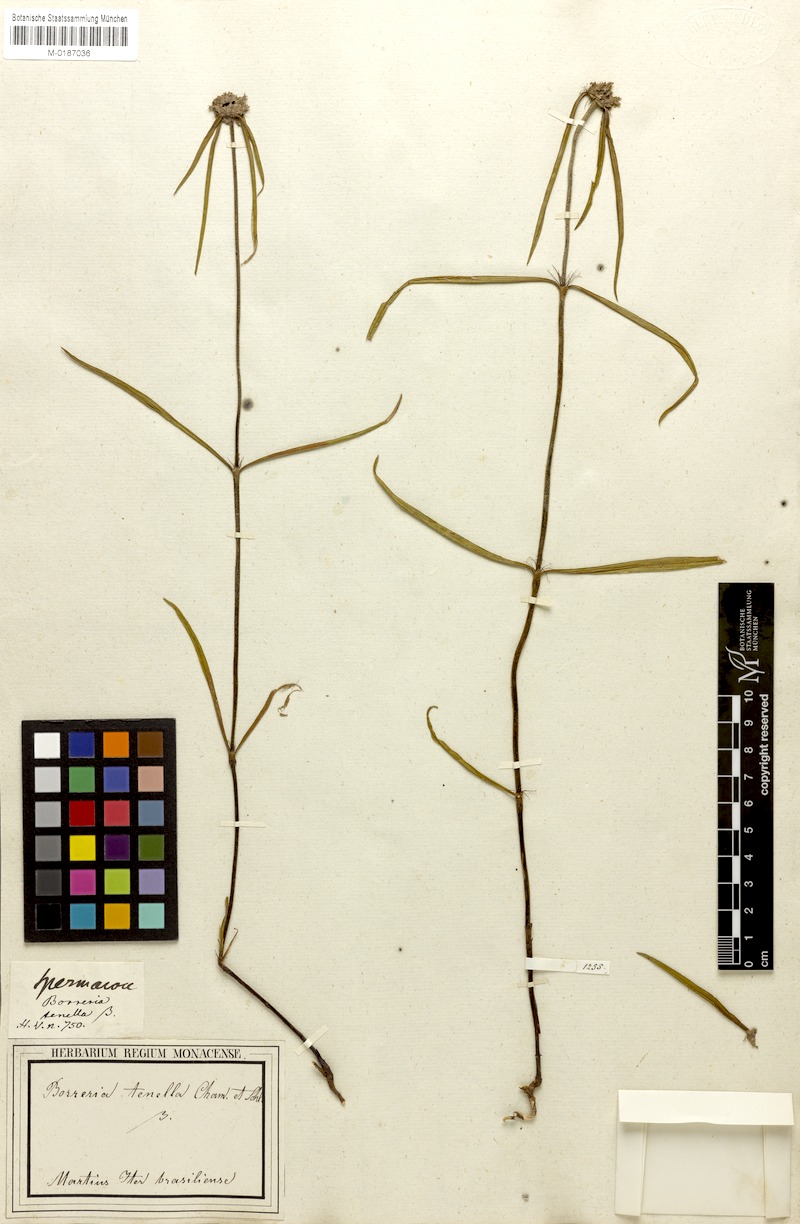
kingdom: Plantae
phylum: Tracheophyta
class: Magnoliopsida
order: Gentianales
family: Rubiaceae
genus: Spermacoce
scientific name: Spermacoce orinocensis
